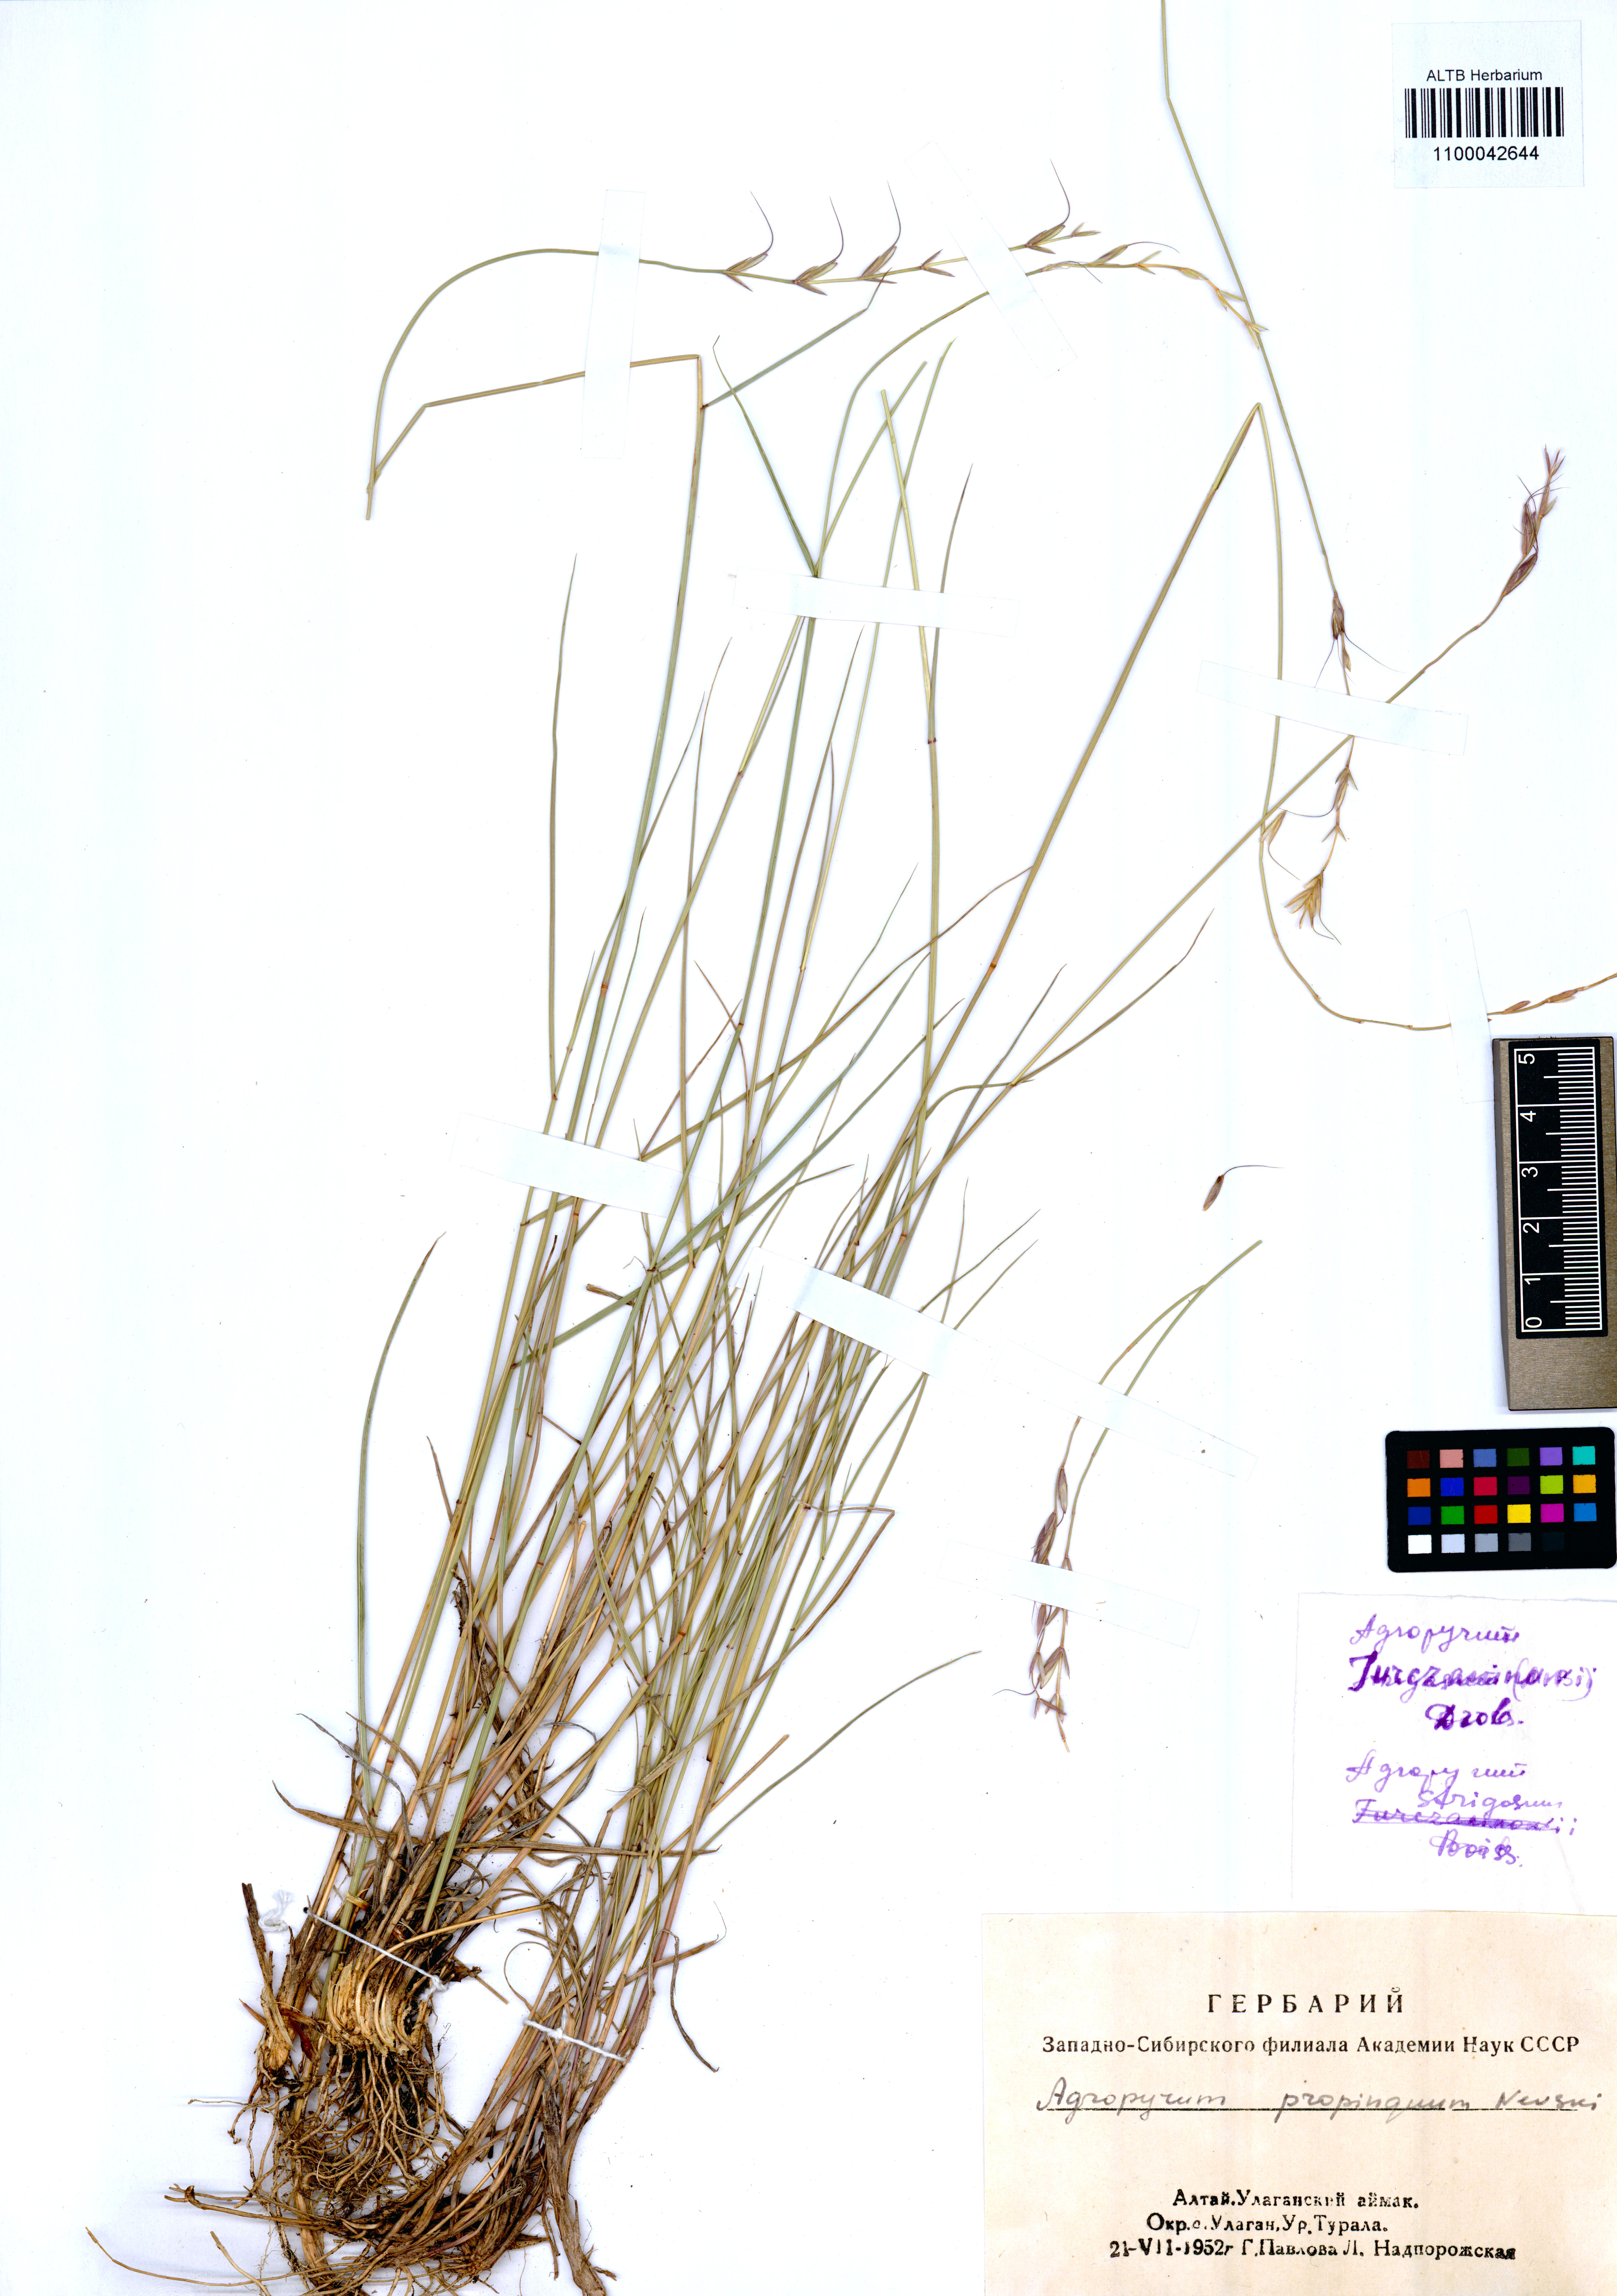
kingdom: Plantae
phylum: Tracheophyta
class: Liliopsida
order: Poales
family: Poaceae
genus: Pseudoroegneria
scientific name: Pseudoroegneria reflexiaristata
